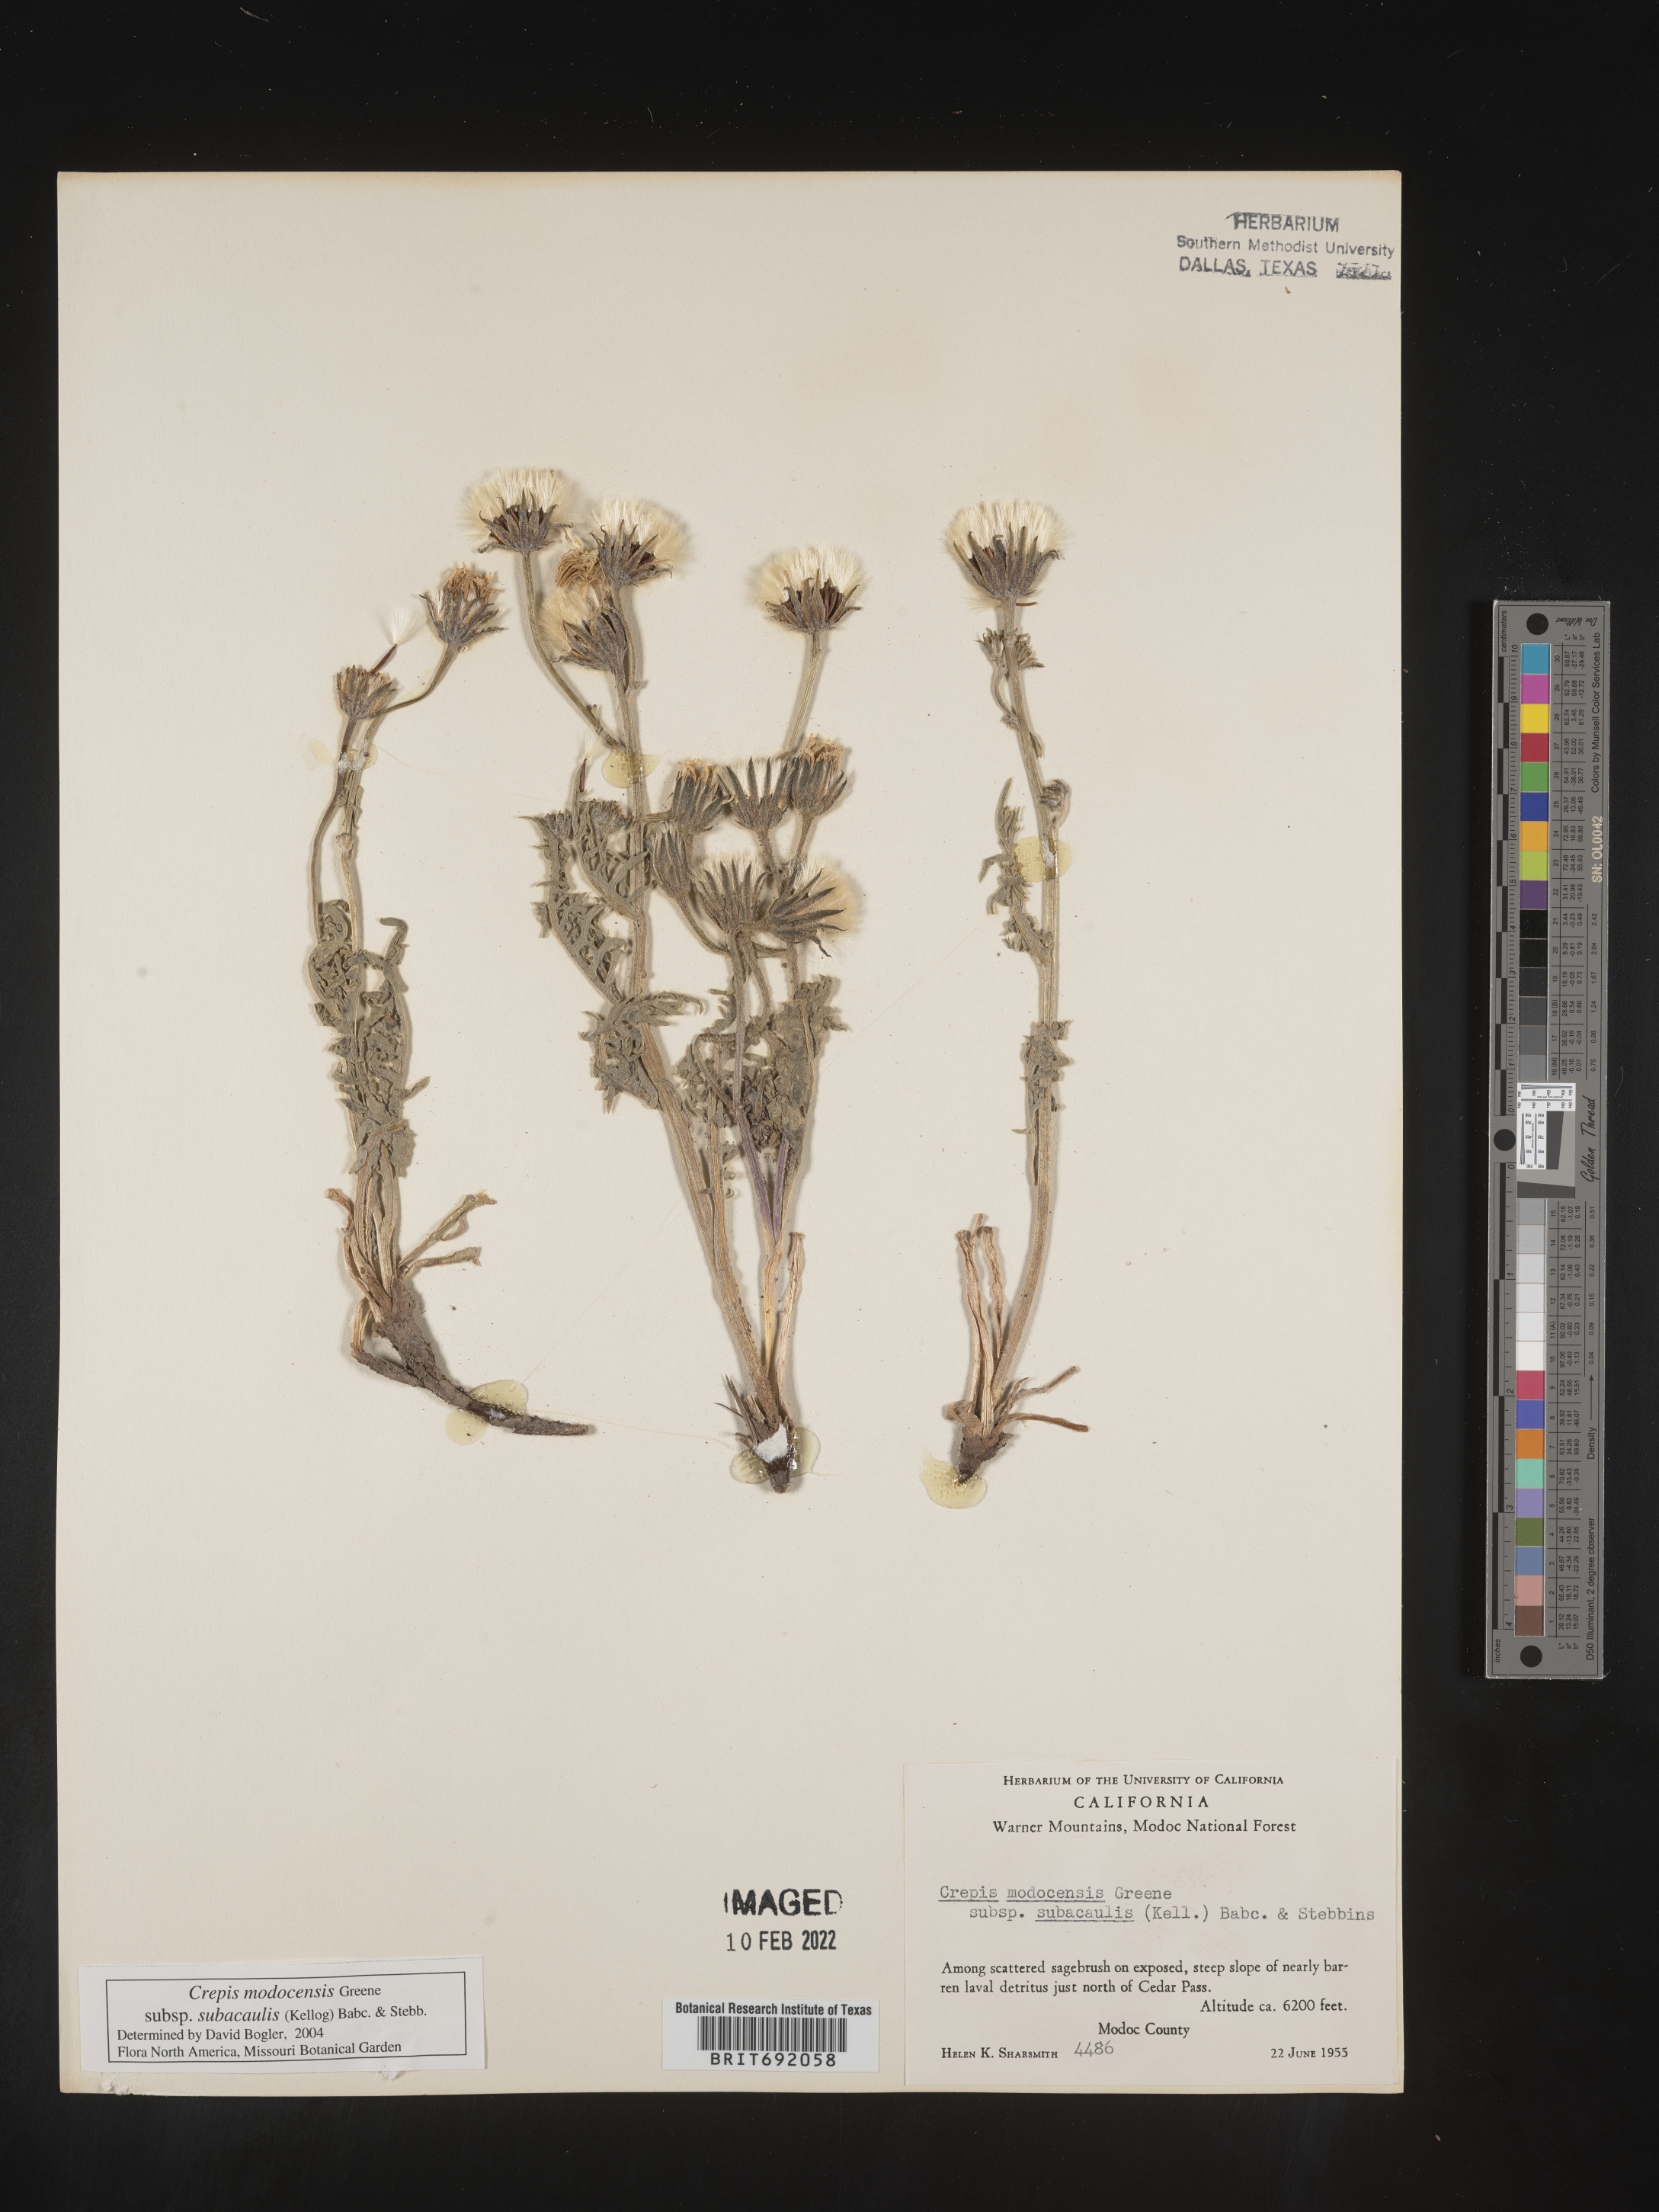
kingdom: Plantae
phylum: Tracheophyta
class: Magnoliopsida
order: Asterales
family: Asteraceae
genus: Crepis
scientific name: Crepis
